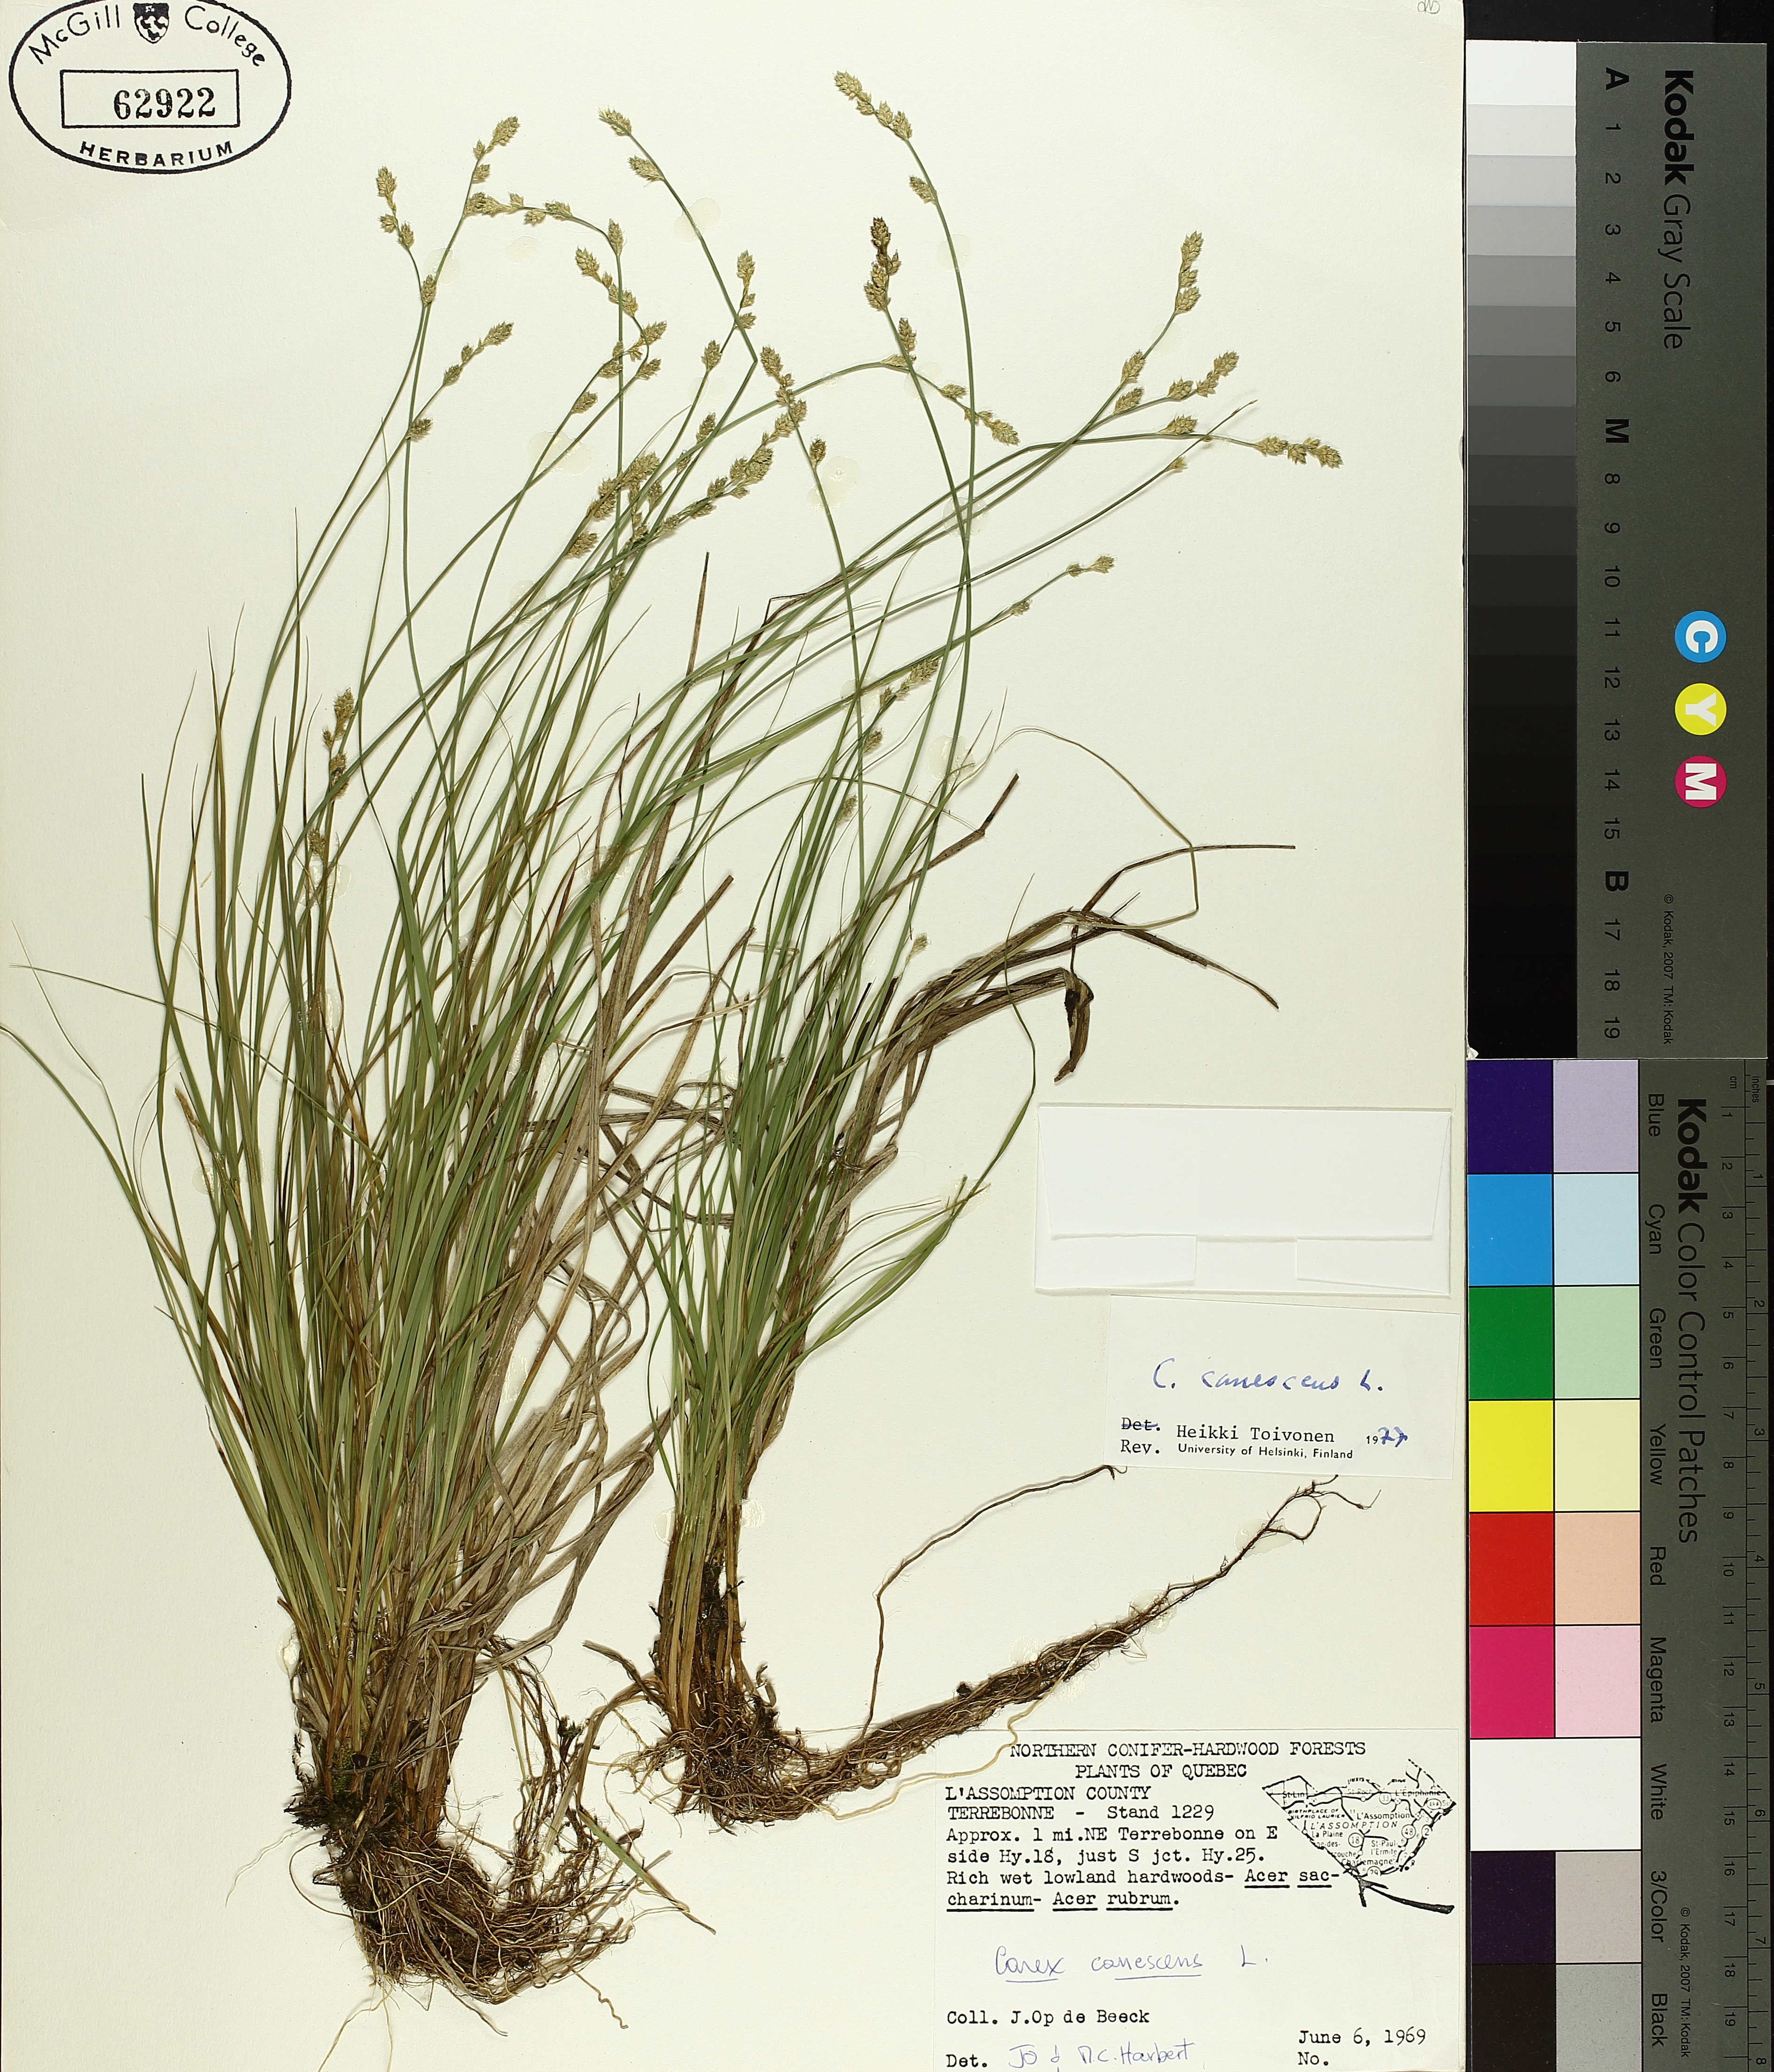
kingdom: Plantae
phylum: Tracheophyta
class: Liliopsida
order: Poales
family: Cyperaceae
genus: Carex
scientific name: Carex canescens
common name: White sedge
